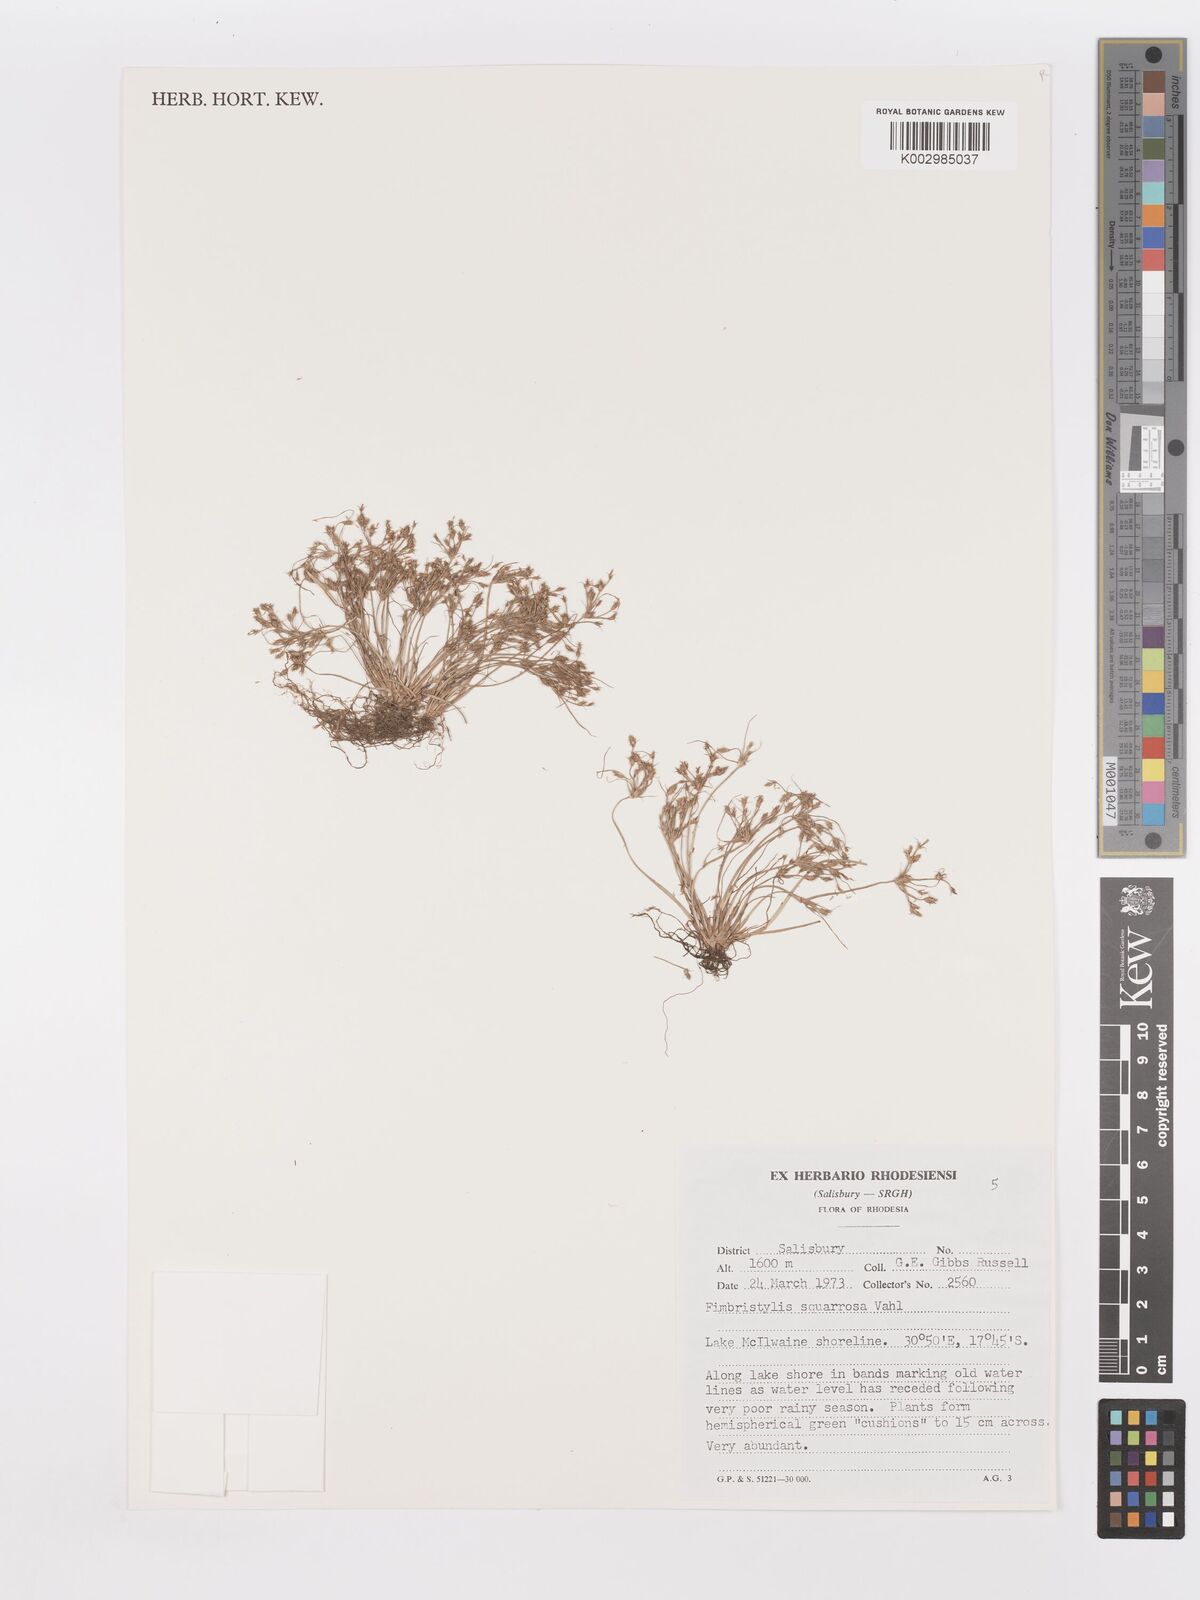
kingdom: Plantae
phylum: Tracheophyta
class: Liliopsida
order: Poales
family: Cyperaceae
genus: Fimbristylis
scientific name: Fimbristylis squarrosa
